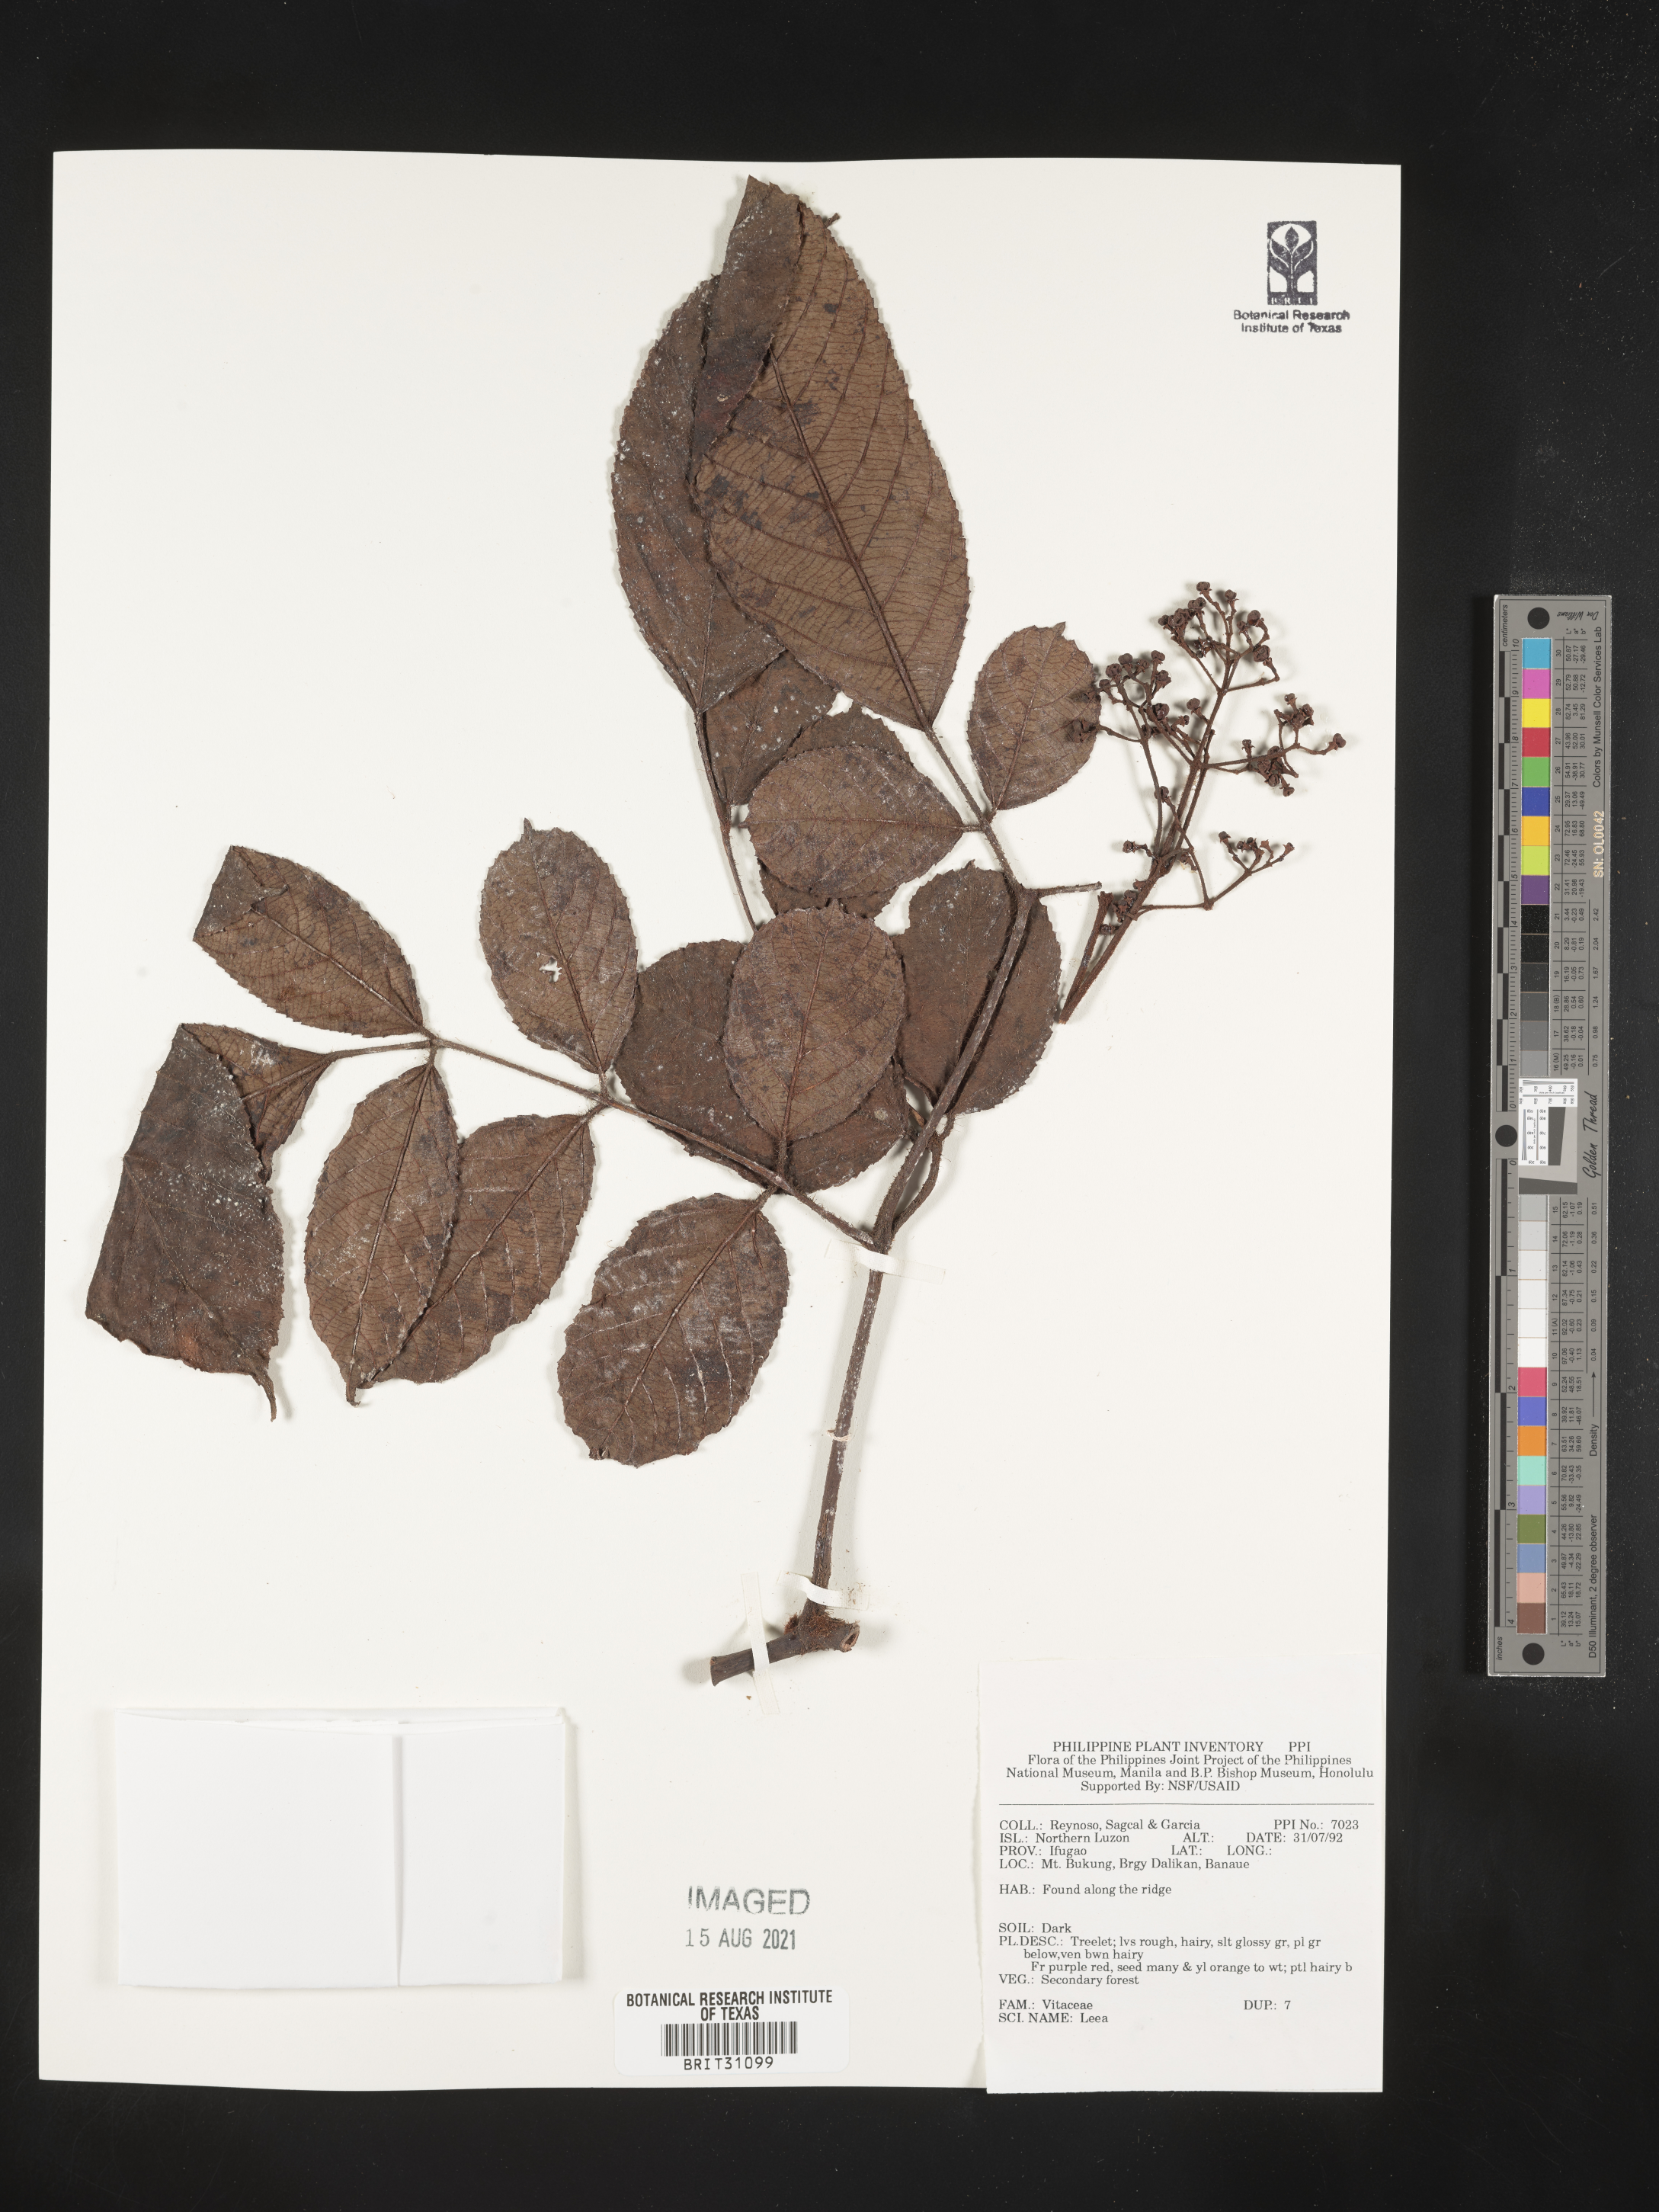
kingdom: Plantae
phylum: Tracheophyta
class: Magnoliopsida
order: Vitales
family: Vitaceae
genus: Leea
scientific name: Leea
